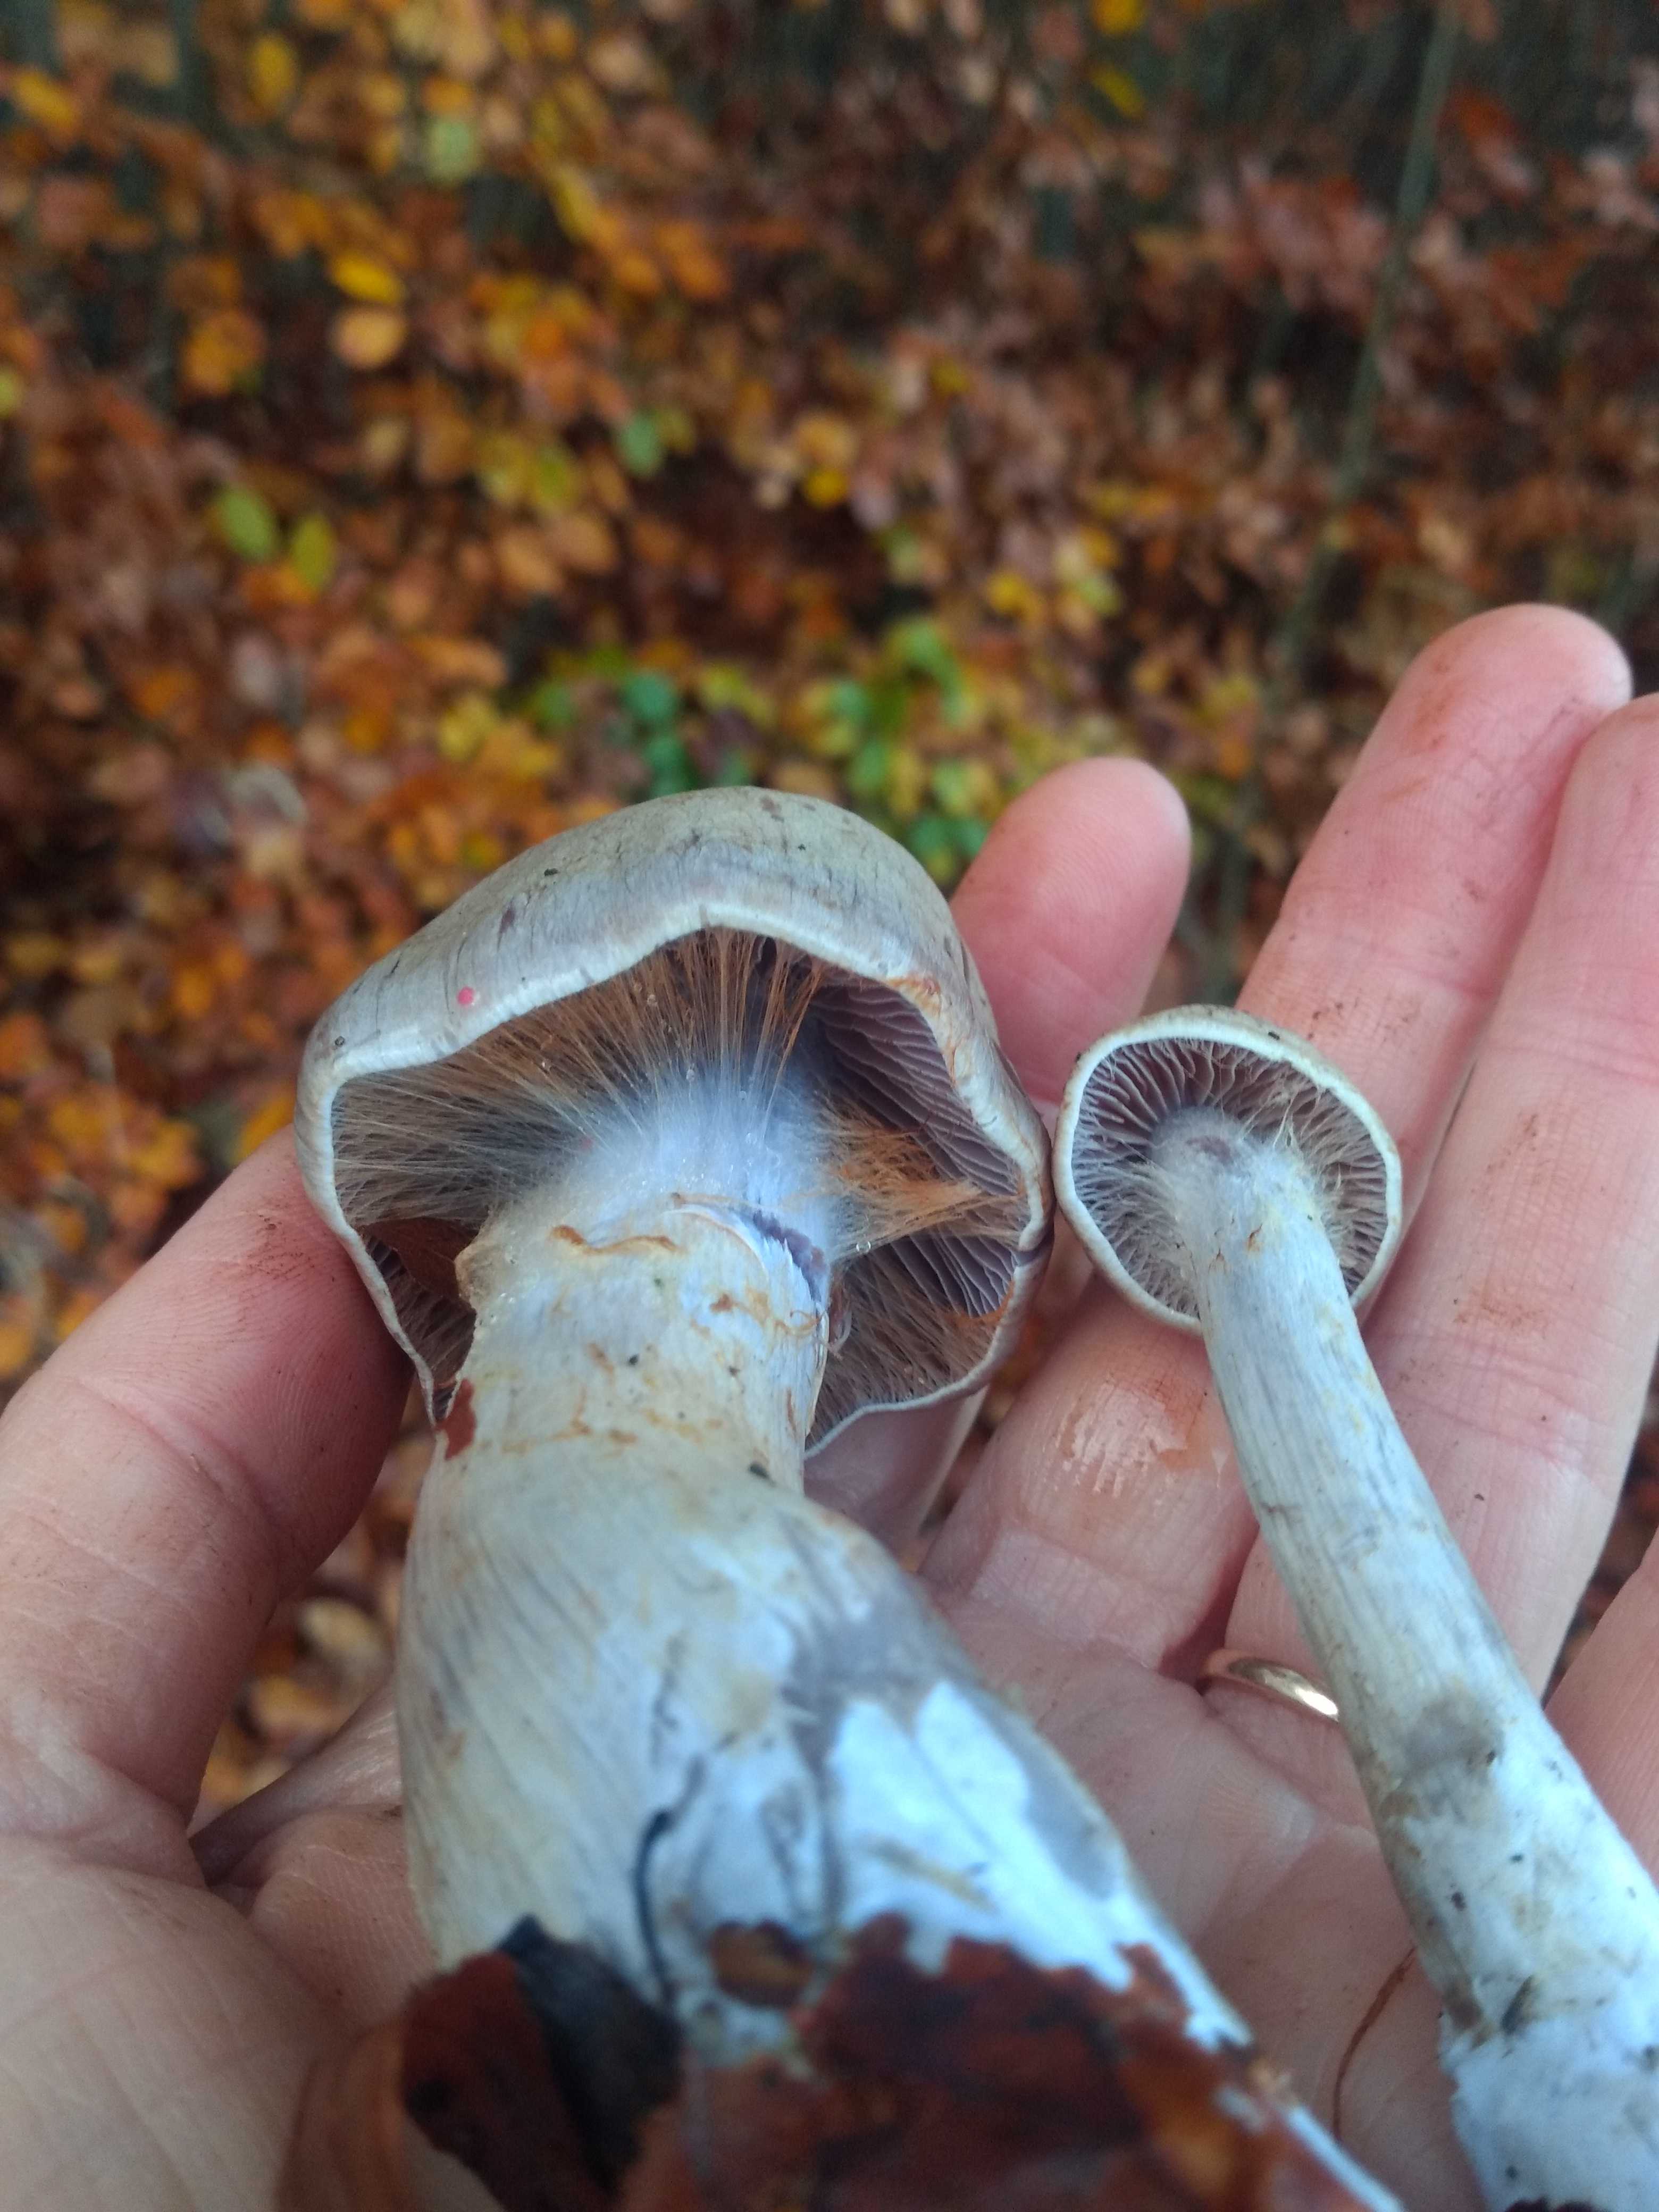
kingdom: Fungi
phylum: Basidiomycota
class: Agaricomycetes
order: Agaricales
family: Cortinariaceae
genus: Cortinarius
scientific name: Cortinarius
